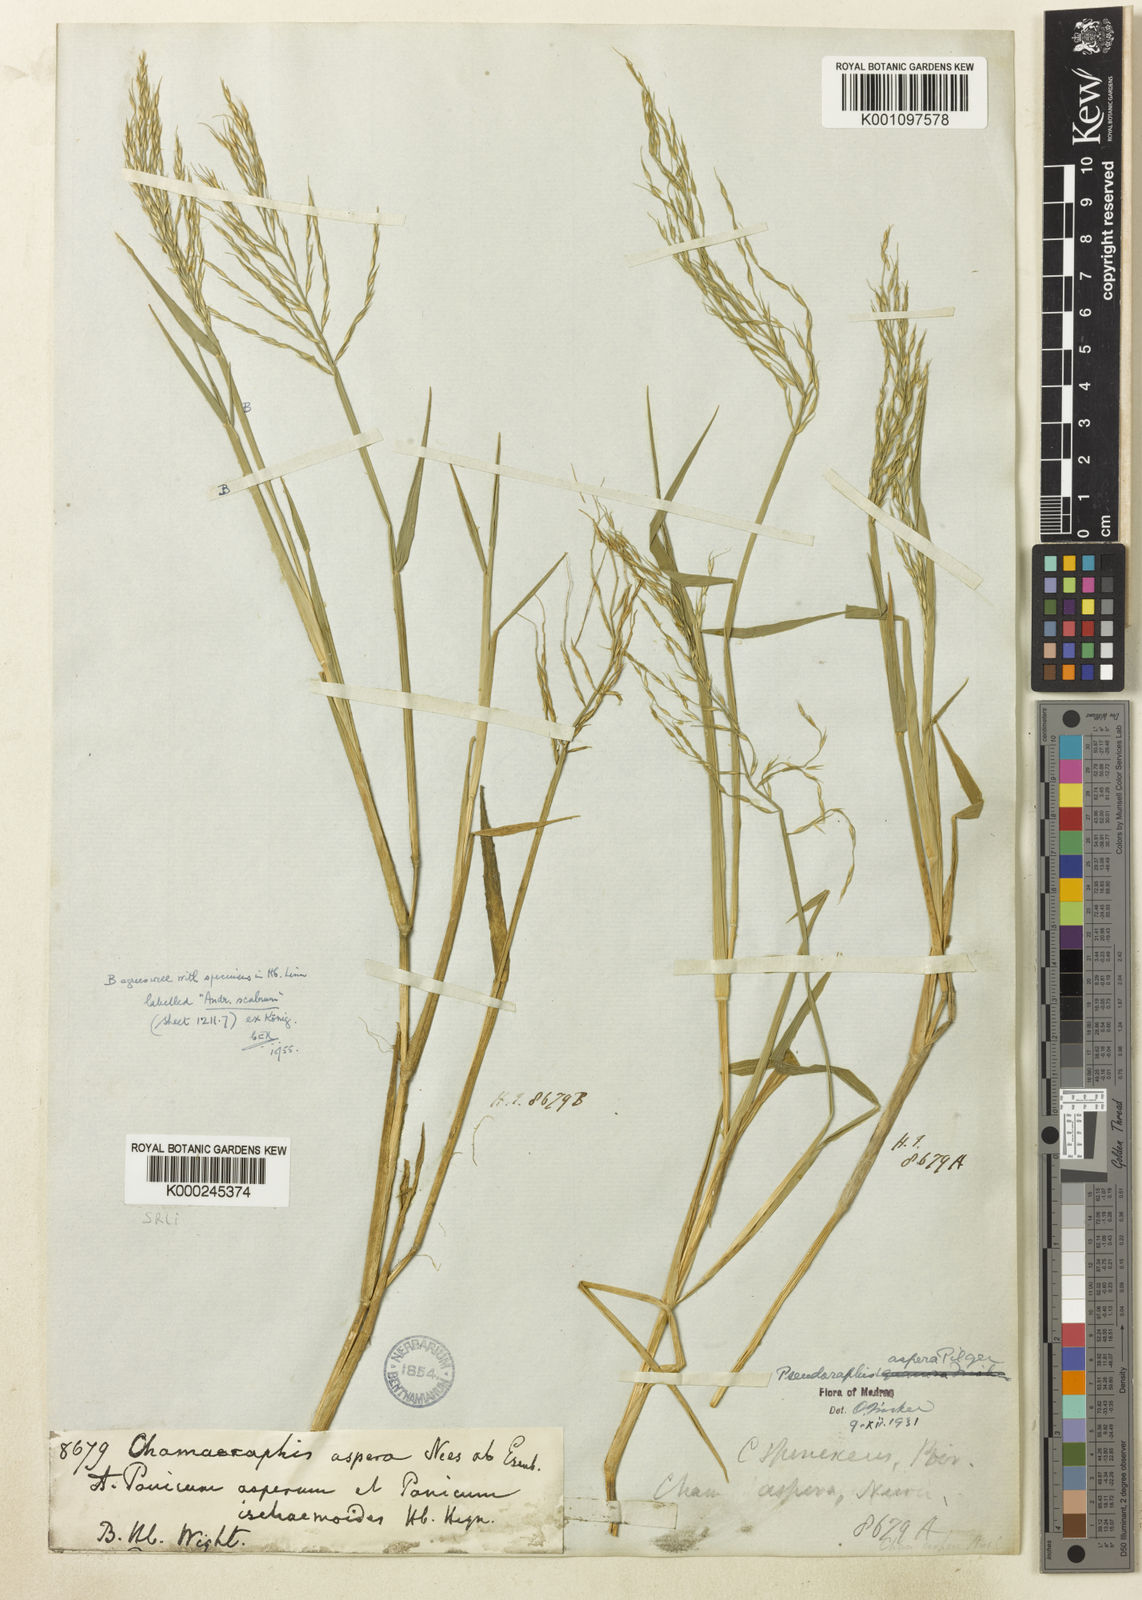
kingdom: Plantae
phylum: Tracheophyta
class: Liliopsida
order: Poales
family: Poaceae
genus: Pseudoraphis
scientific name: Pseudoraphis sordida
